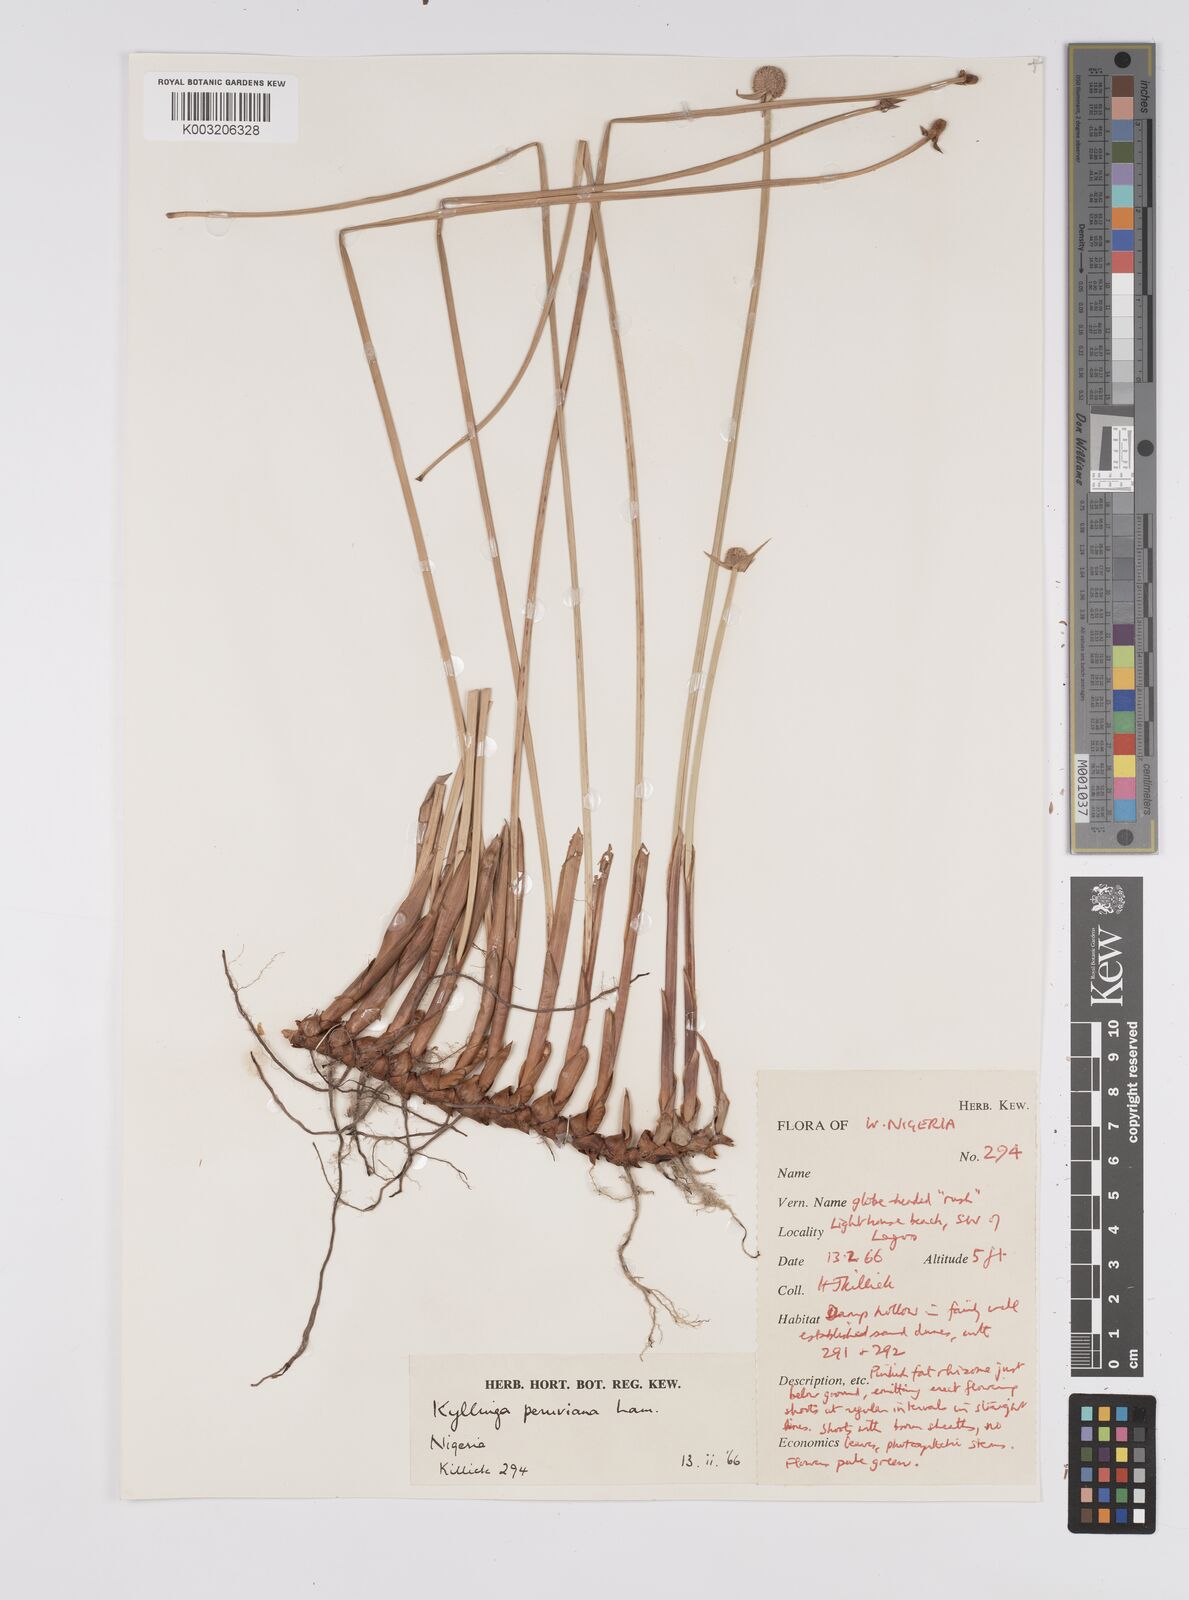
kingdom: Plantae
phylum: Tracheophyta
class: Liliopsida
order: Poales
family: Cyperaceae
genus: Cyperus
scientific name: Cyperus
